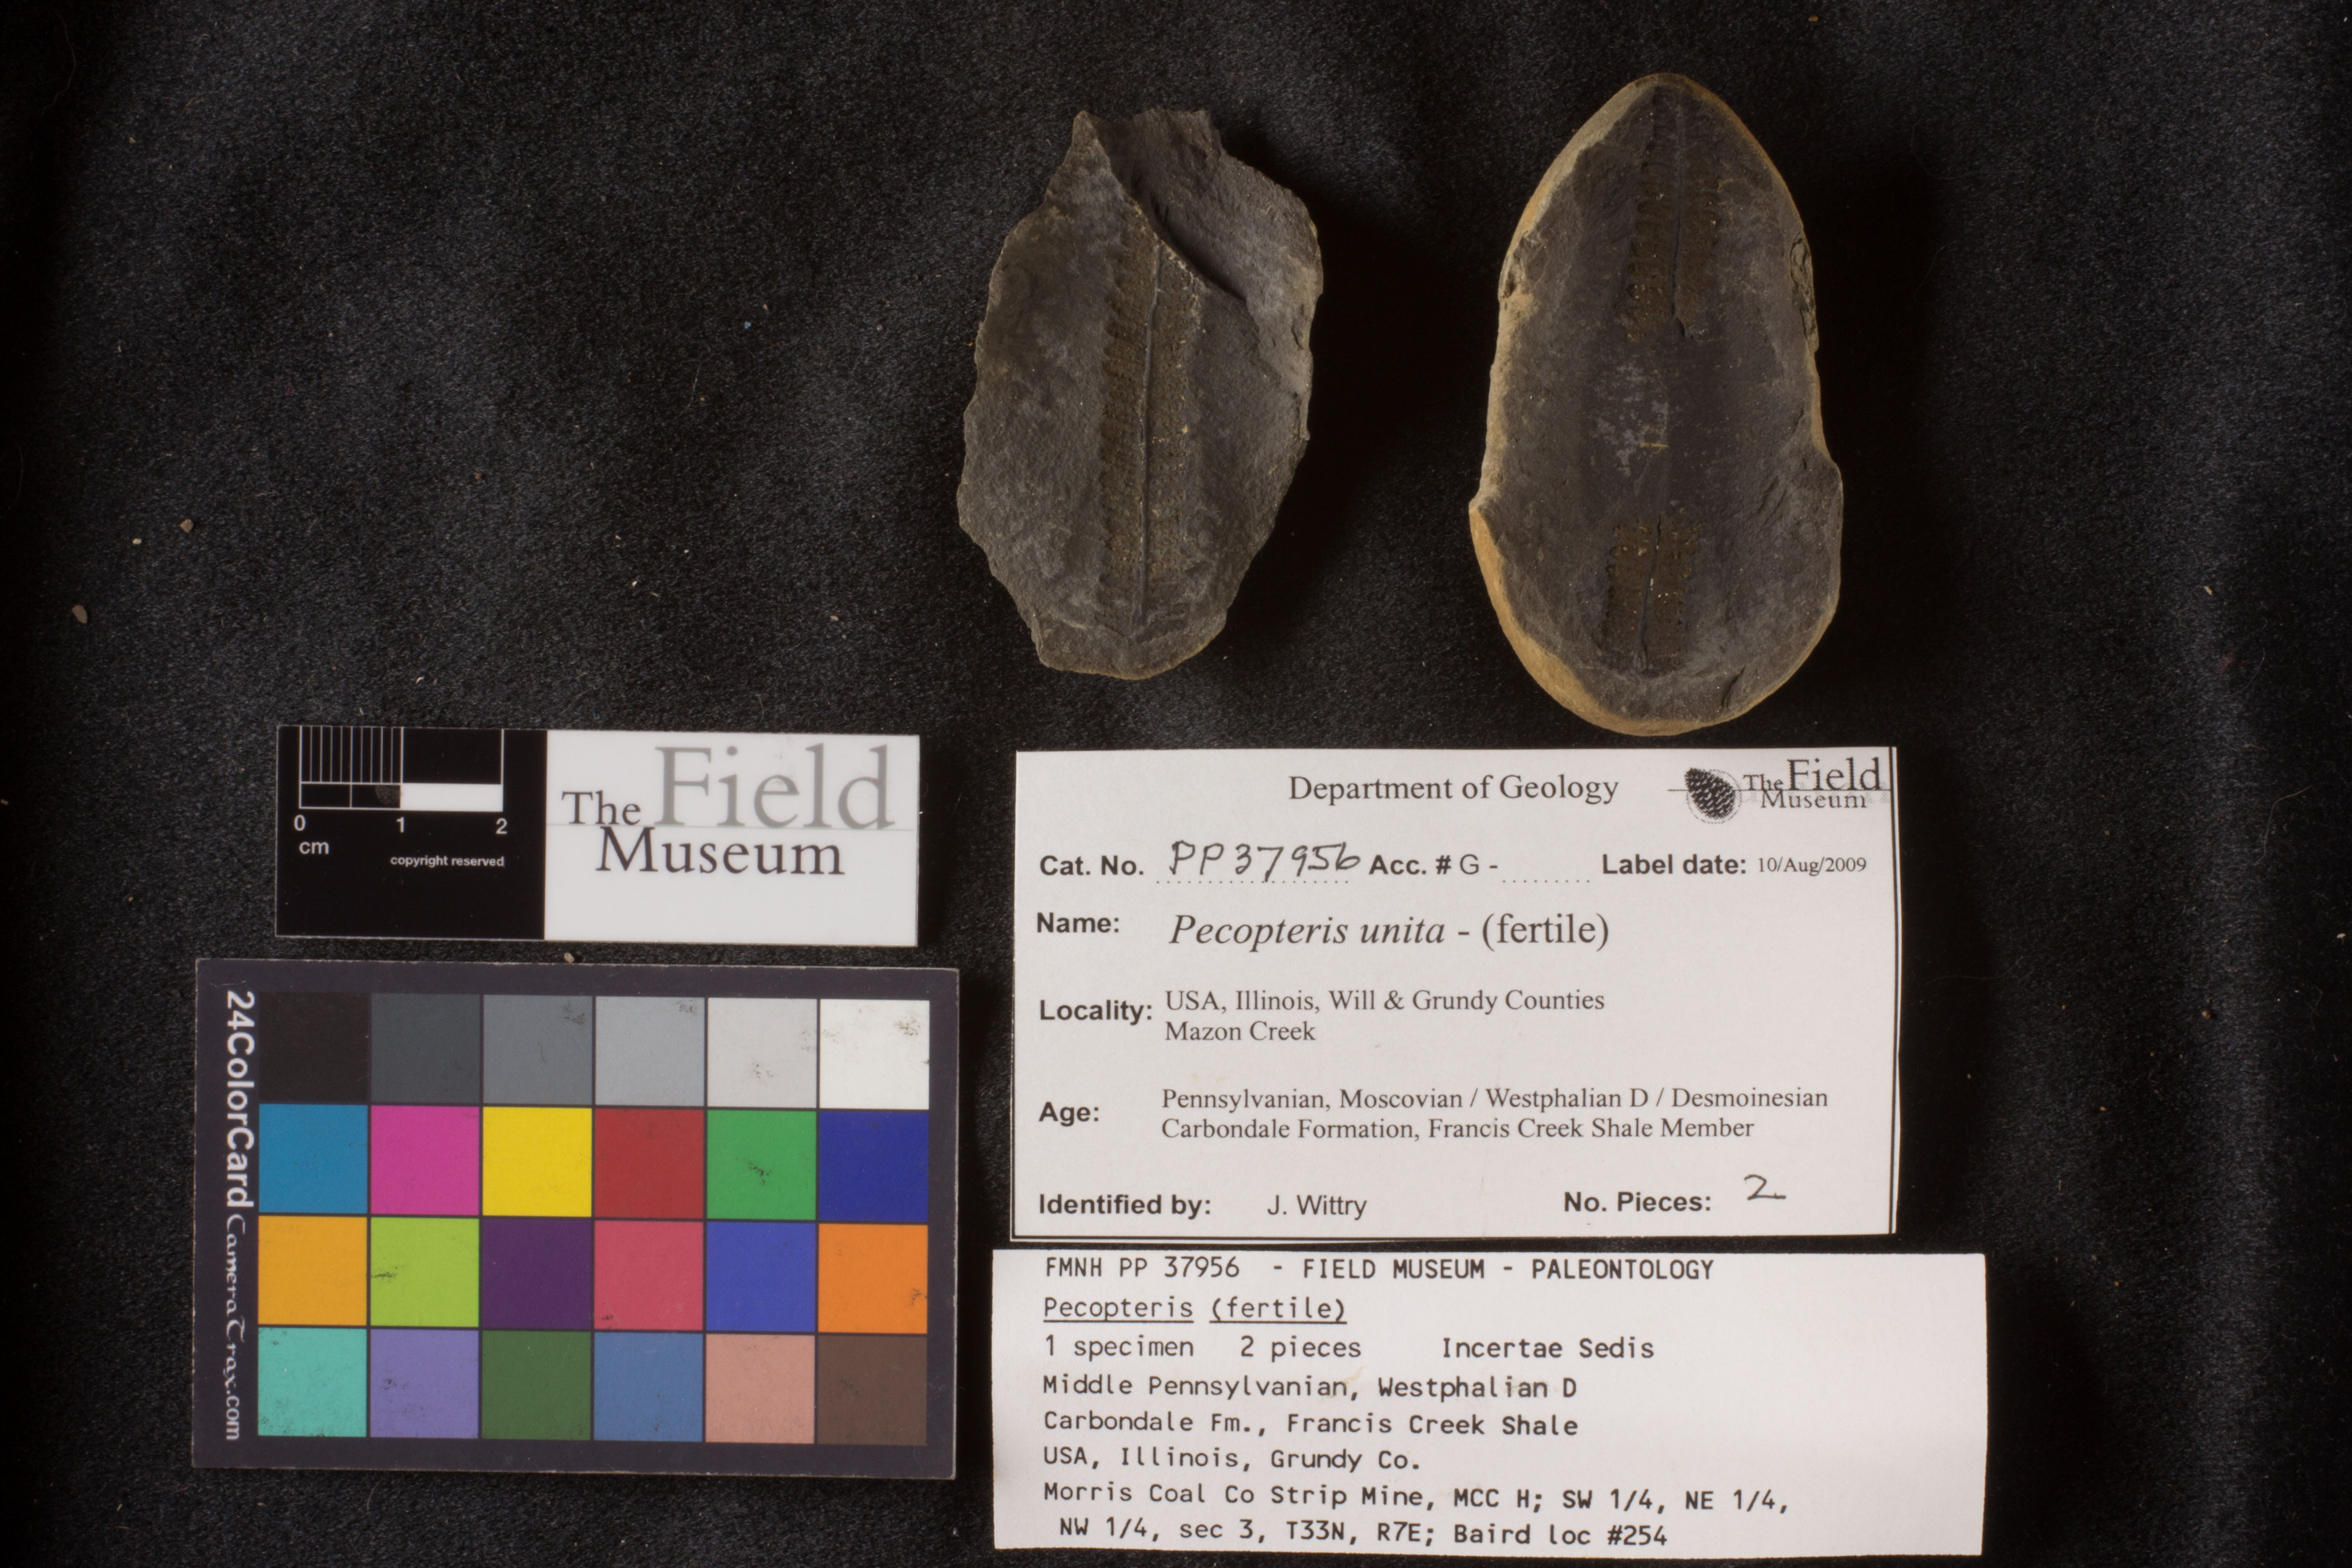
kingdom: Plantae
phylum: Tracheophyta
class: Polypodiopsida
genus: Diplazites
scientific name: Diplazites
